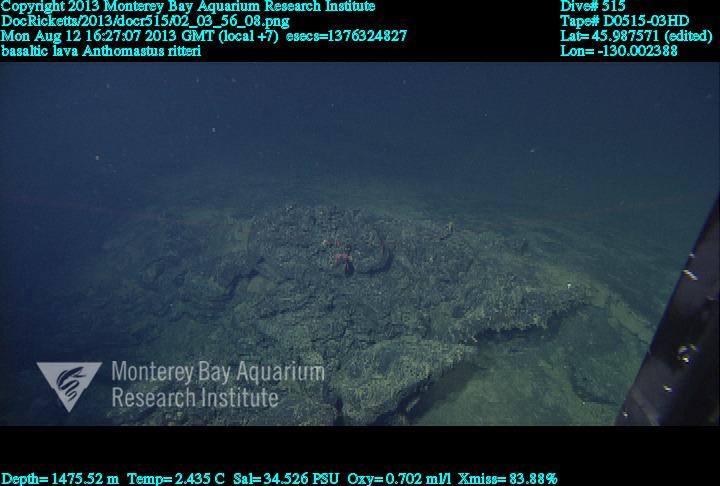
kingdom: Animalia
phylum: Cnidaria
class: Anthozoa
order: Scleralcyonacea
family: Coralliidae
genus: Heteropolypus
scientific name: Heteropolypus ritteri
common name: Ritter's soft coral
